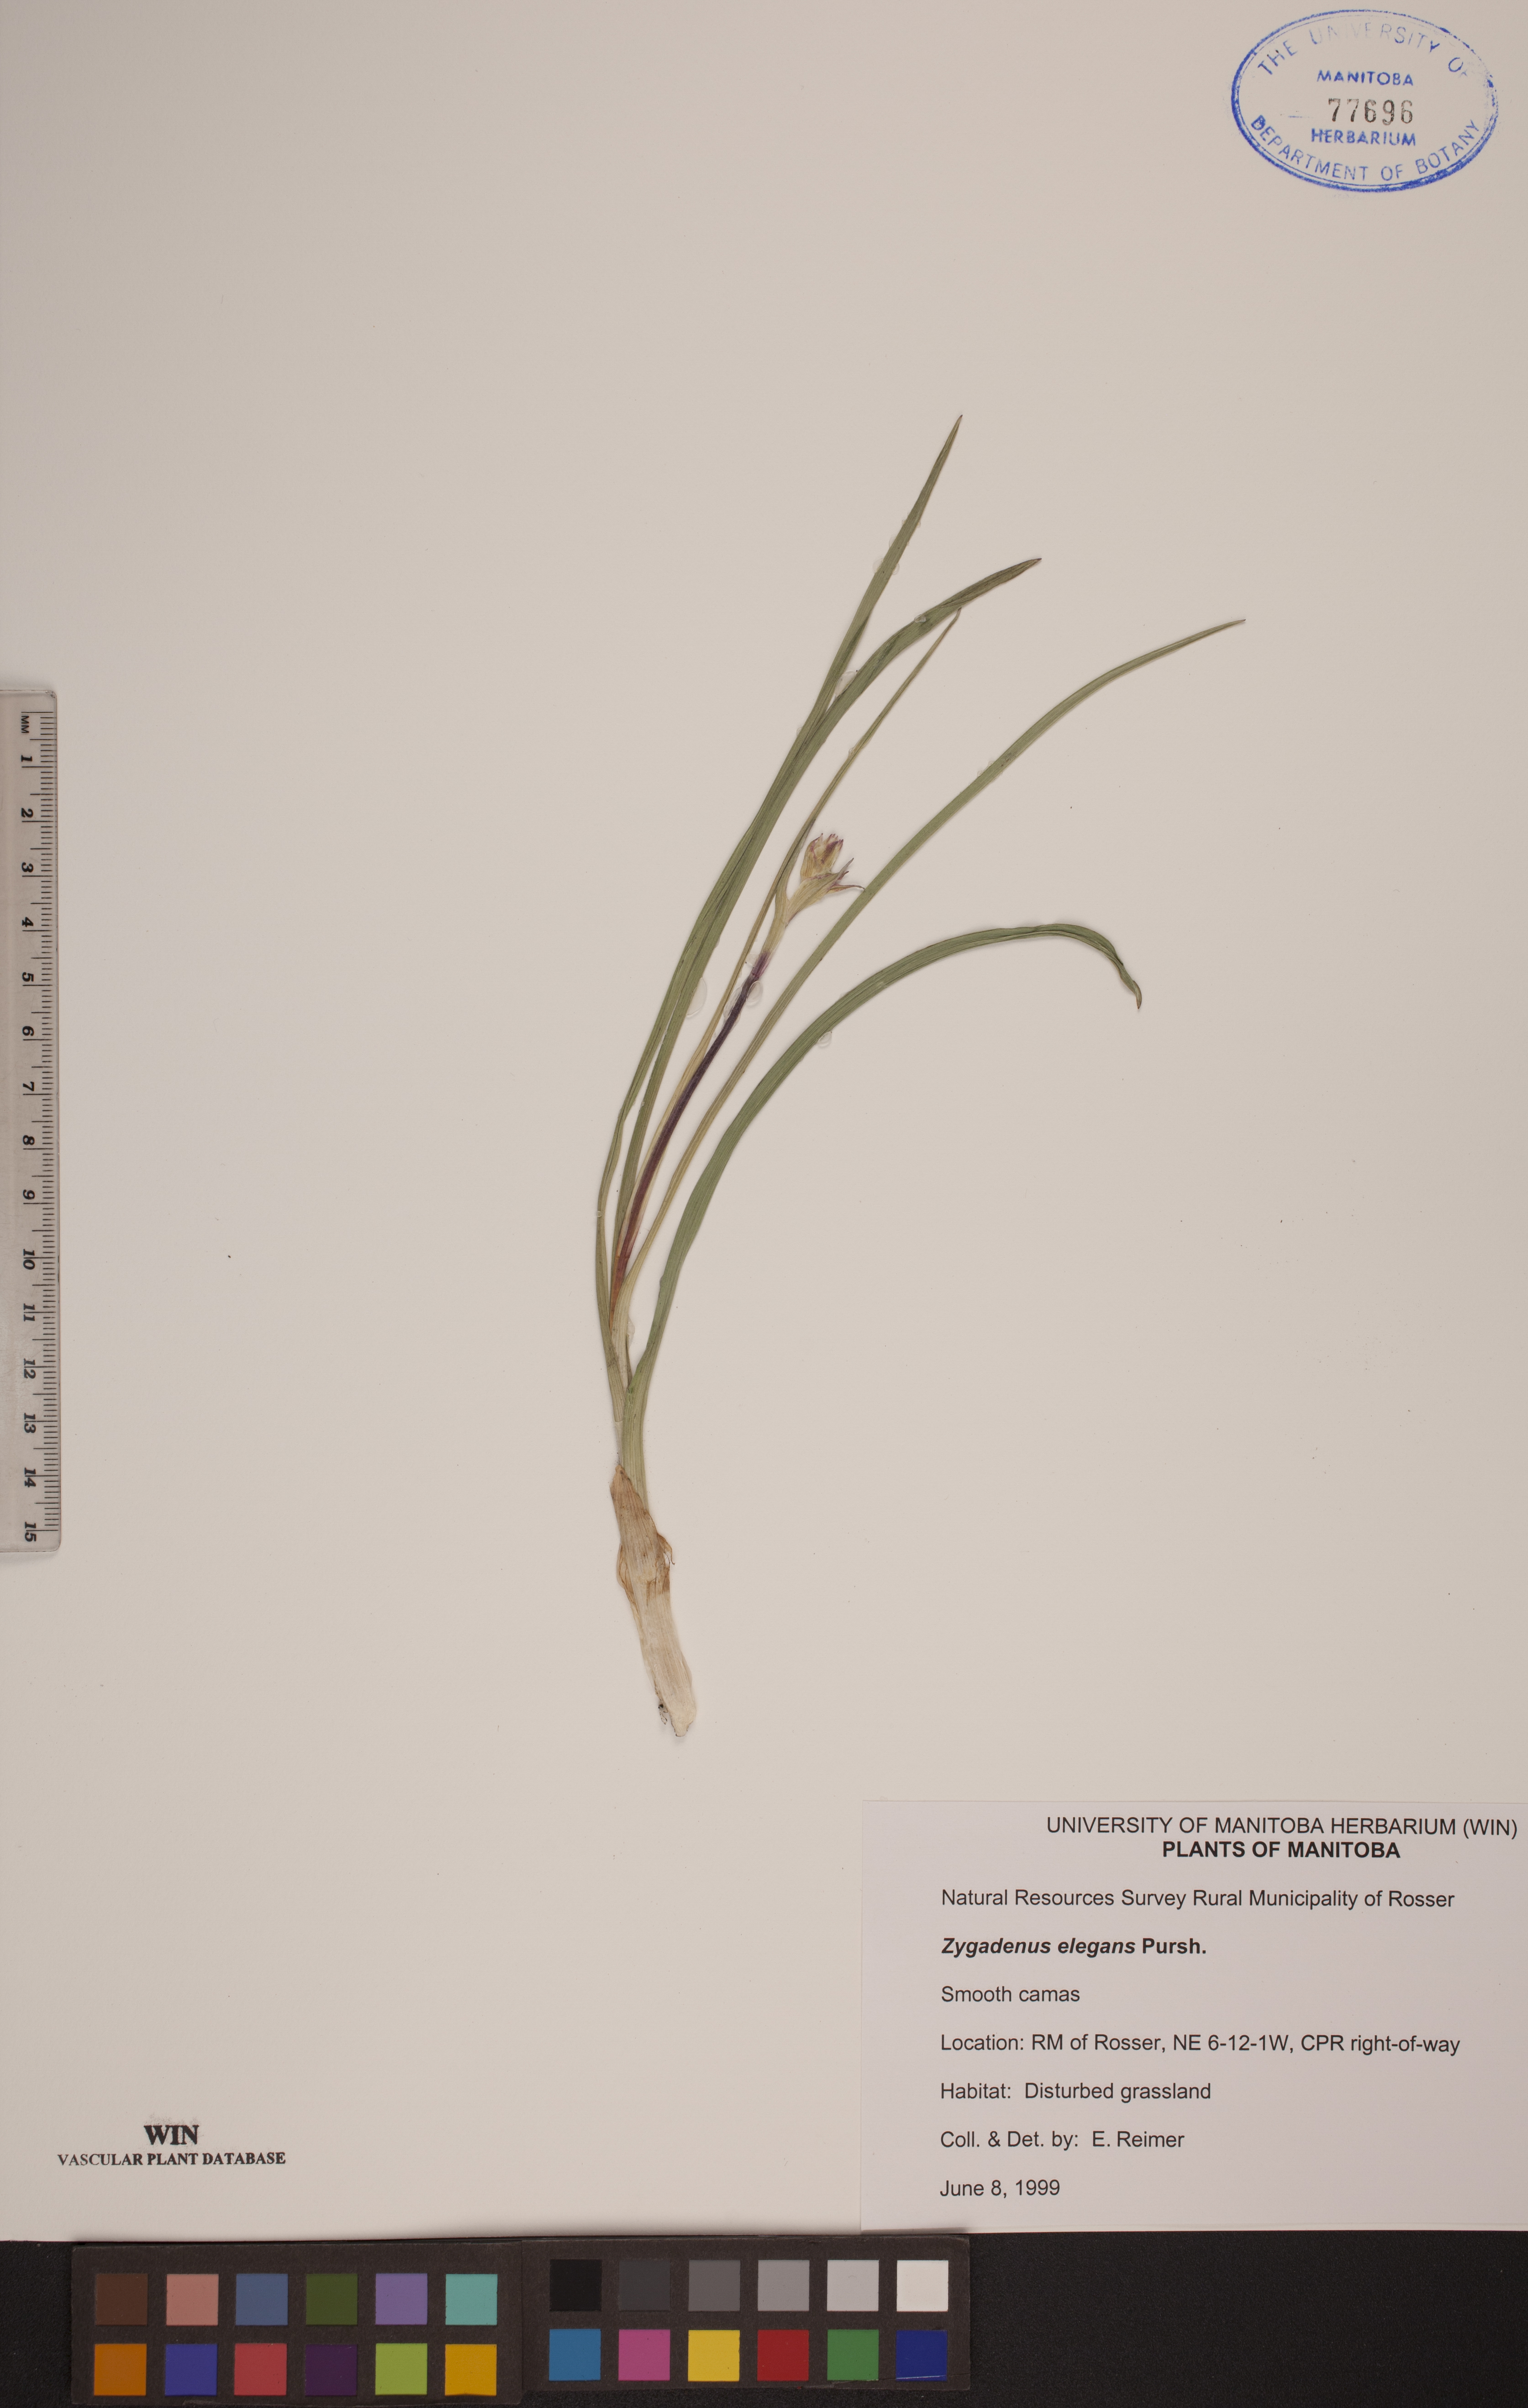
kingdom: Plantae
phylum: Tracheophyta
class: Liliopsida
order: Liliales
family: Melanthiaceae
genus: Anticlea
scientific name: Anticlea elegans
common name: Mountain death camas
